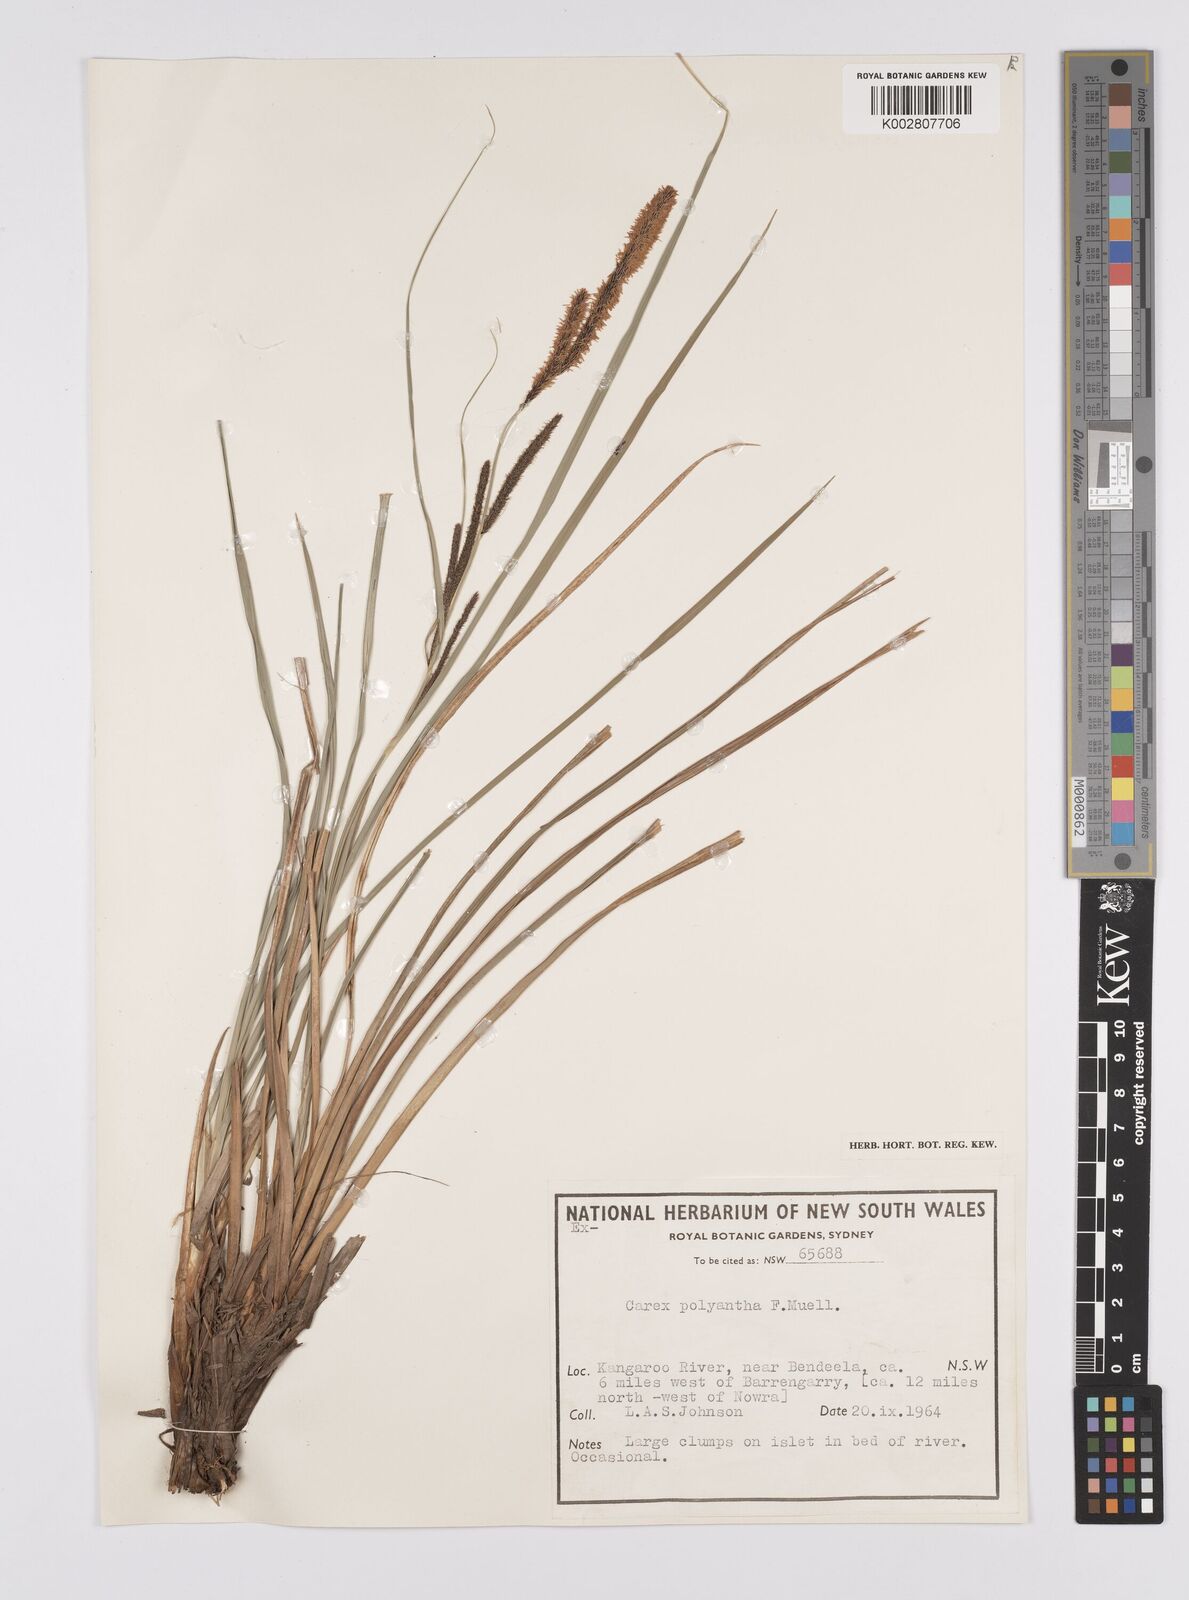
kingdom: Plantae
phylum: Tracheophyta
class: Liliopsida
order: Poales
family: Cyperaceae
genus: Carex
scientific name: Carex polyantha
